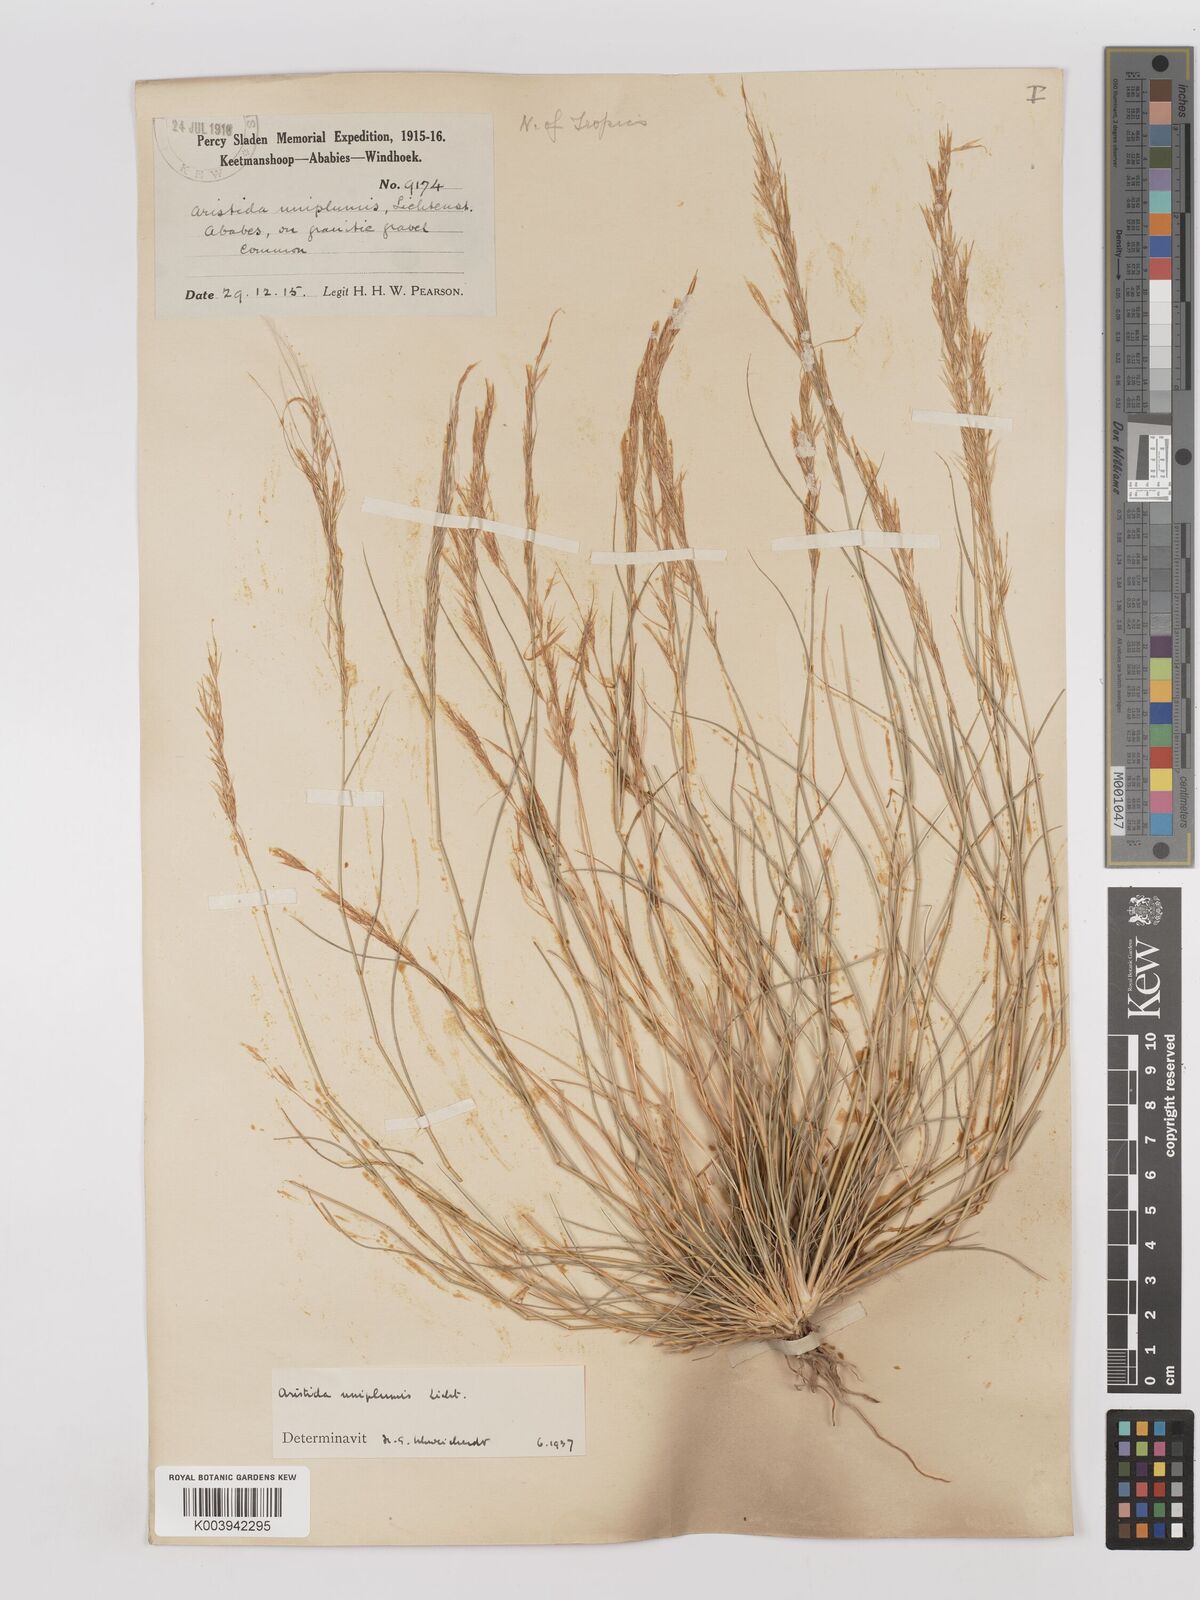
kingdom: Plantae
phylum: Tracheophyta
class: Liliopsida
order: Poales
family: Poaceae
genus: Stipagrostis
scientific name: Stipagrostis uniplumis
